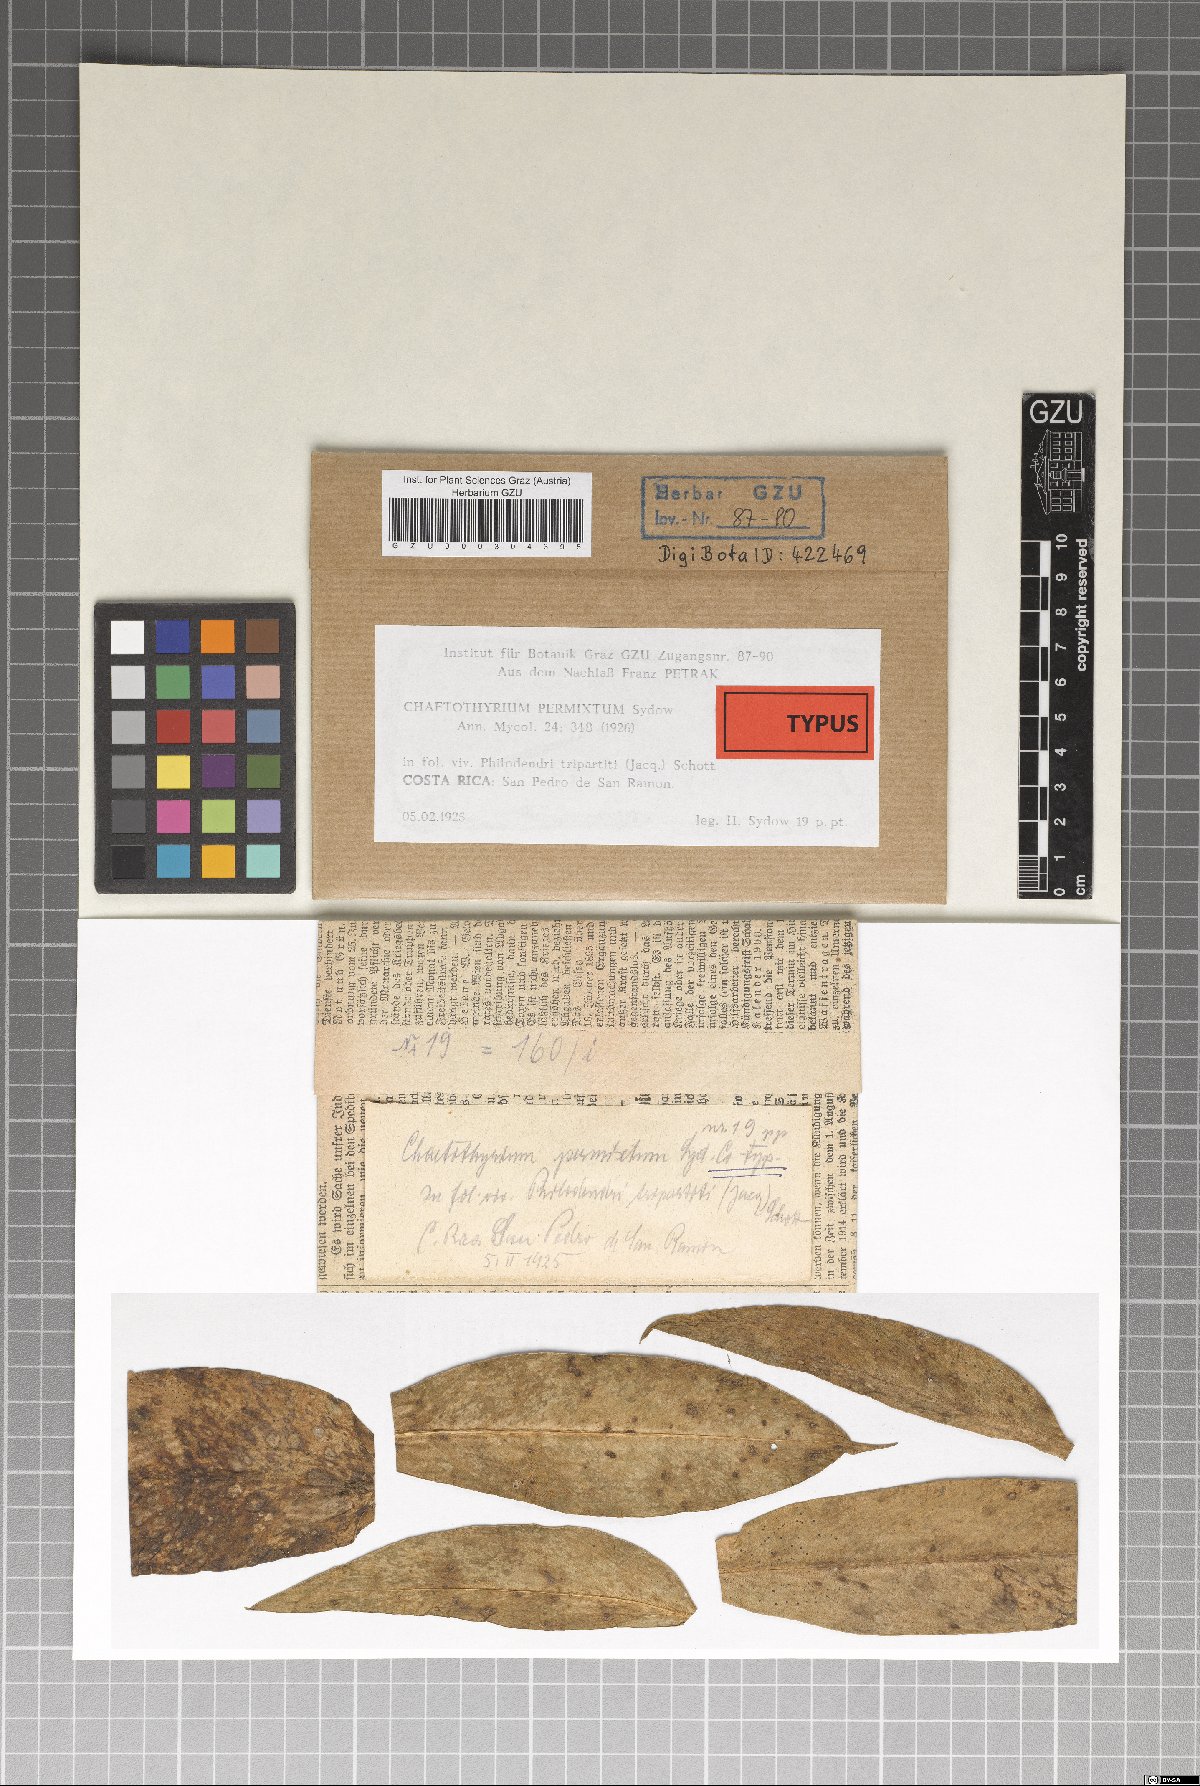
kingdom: Fungi
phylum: Ascomycota
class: Eurotiomycetes
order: Chaetothyriales
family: Chaetothyriaceae
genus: Chaetothyrium
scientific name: Chaetothyrium permixtum
